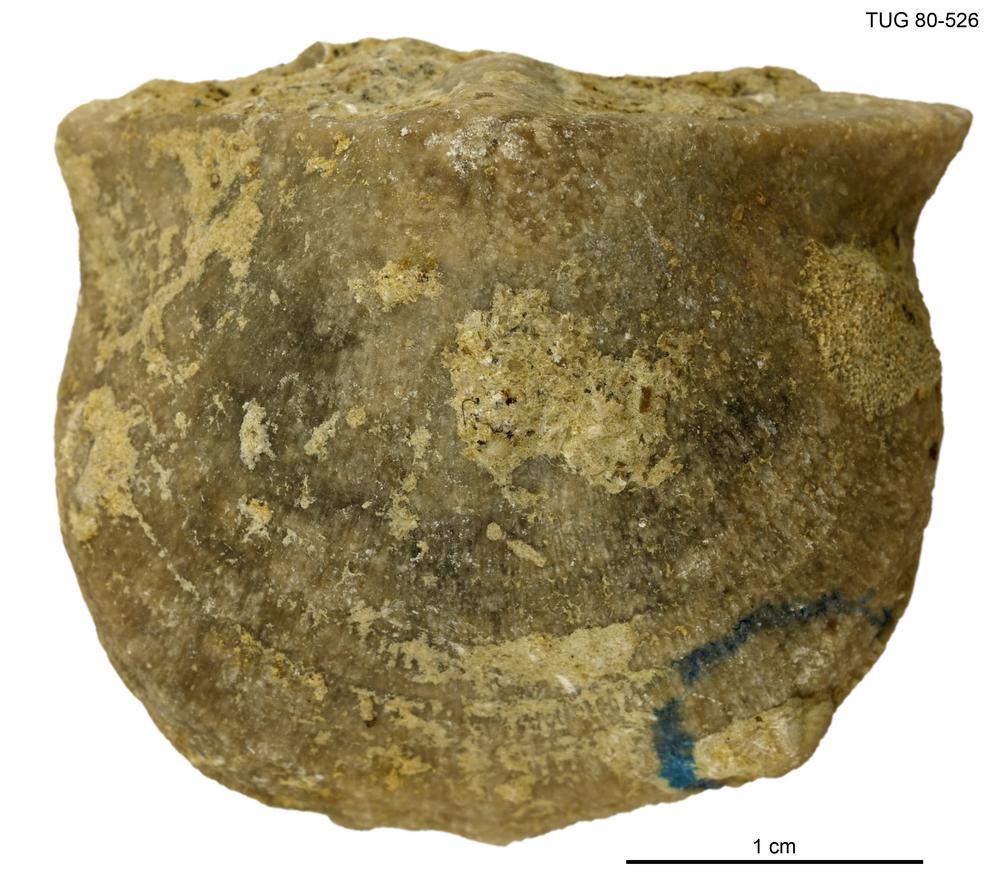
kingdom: Animalia
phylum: Brachiopoda
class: Rhynchonellata
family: Clitambonitidae
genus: Clinambon
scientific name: Clinambon
